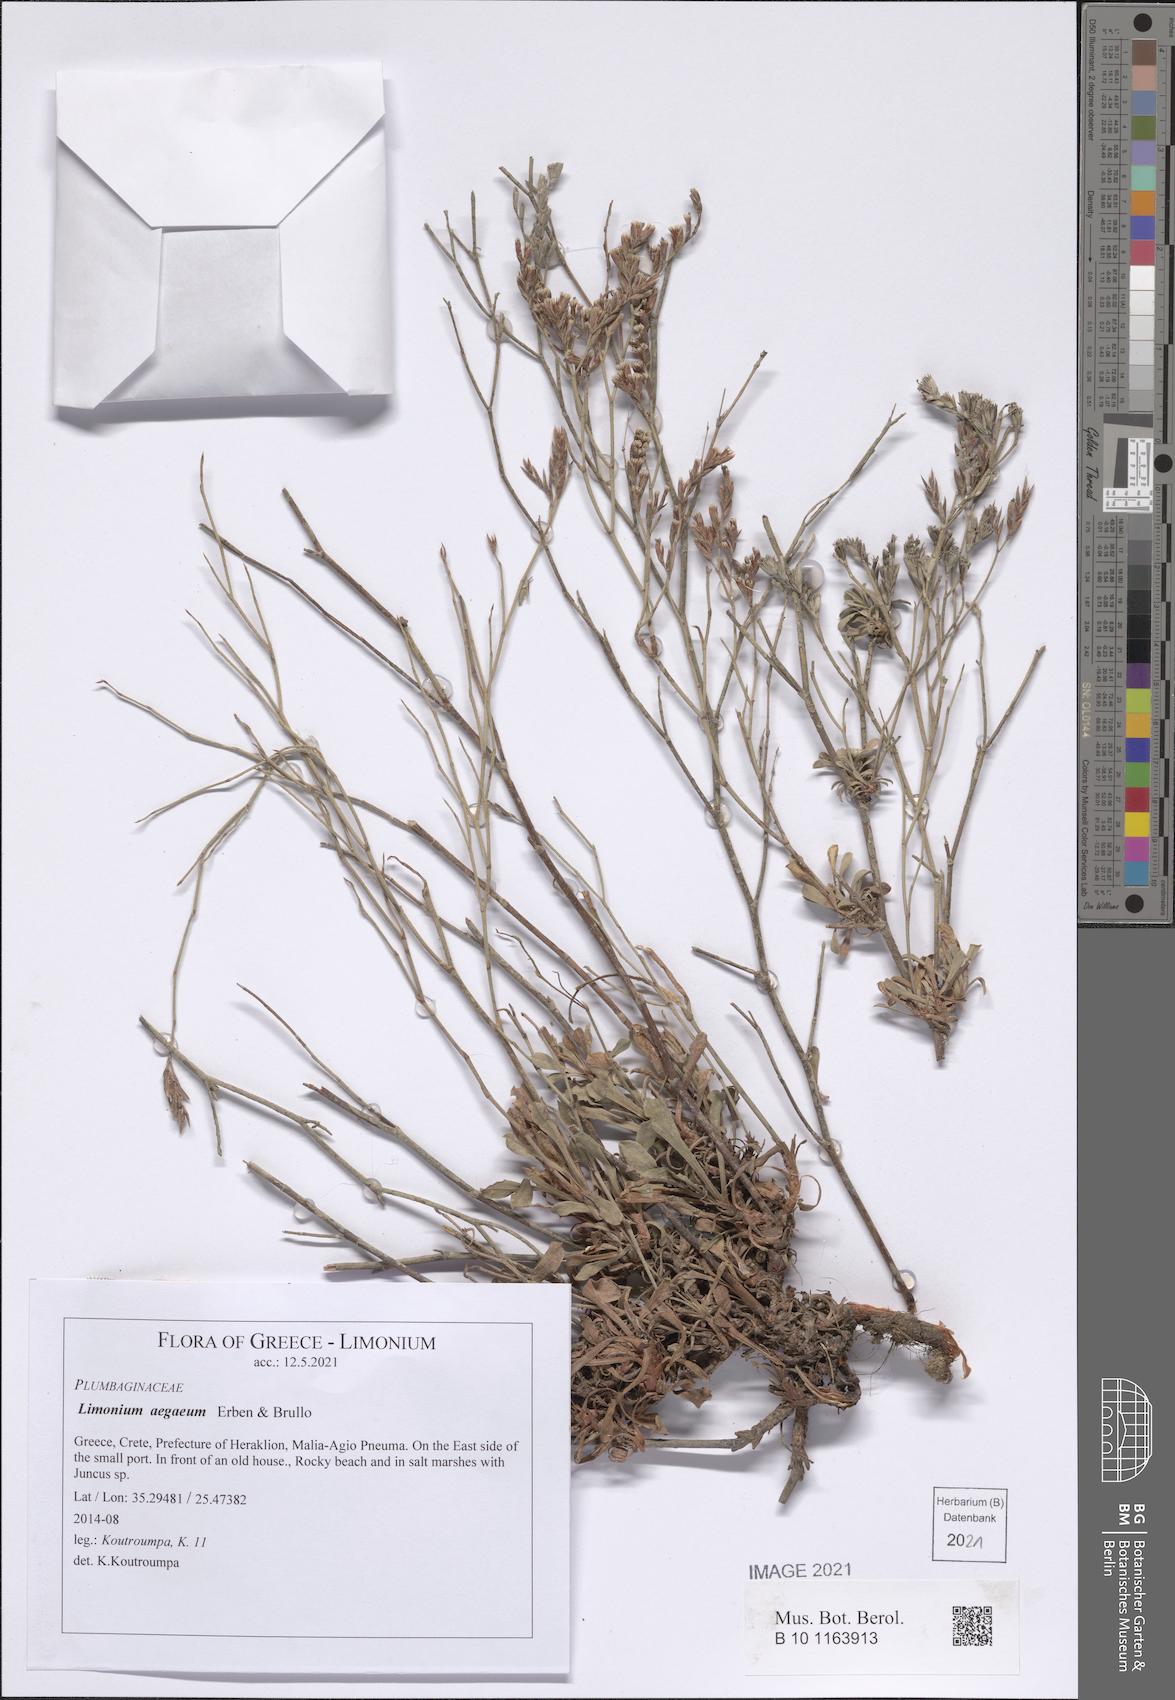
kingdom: Plantae
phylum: Tracheophyta
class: Magnoliopsida
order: Caryophyllales
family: Plumbaginaceae
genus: Limonium
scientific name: Limonium aegaeum
